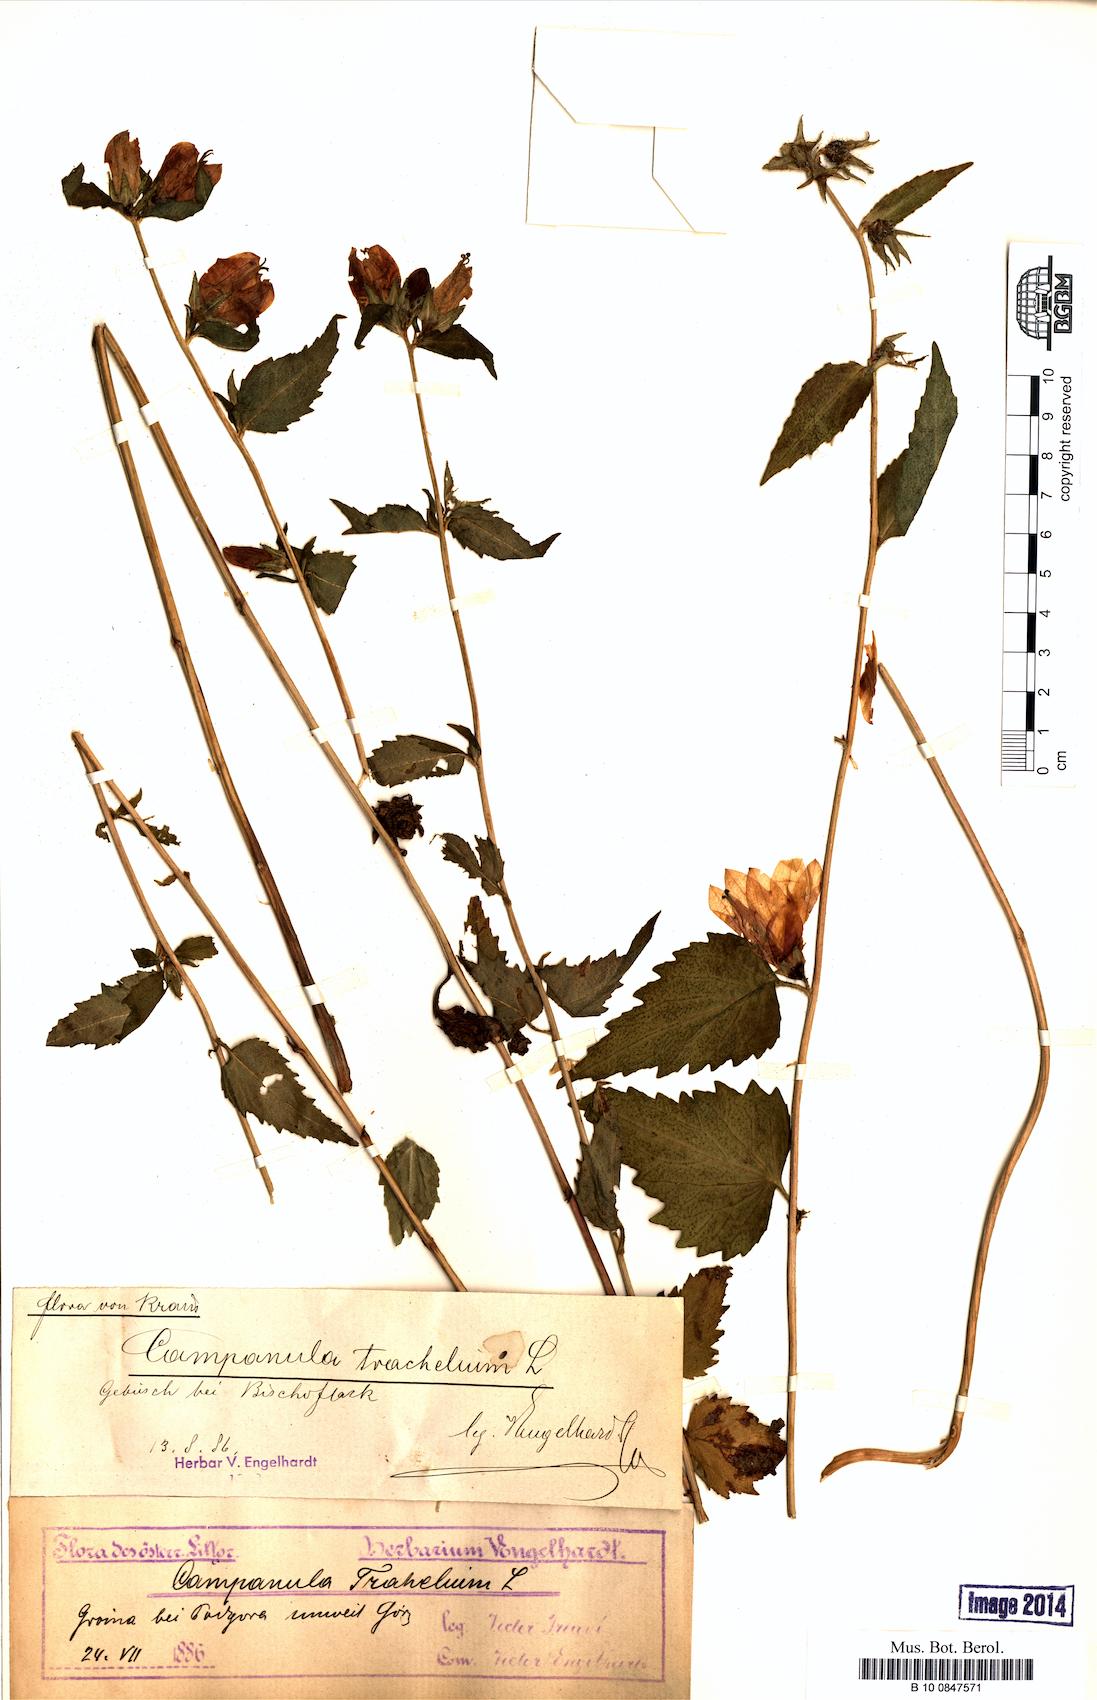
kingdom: Plantae
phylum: Tracheophyta
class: Magnoliopsida
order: Asterales
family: Campanulaceae
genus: Campanula
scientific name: Campanula trachelium
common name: Nettle-leaved bellflower
